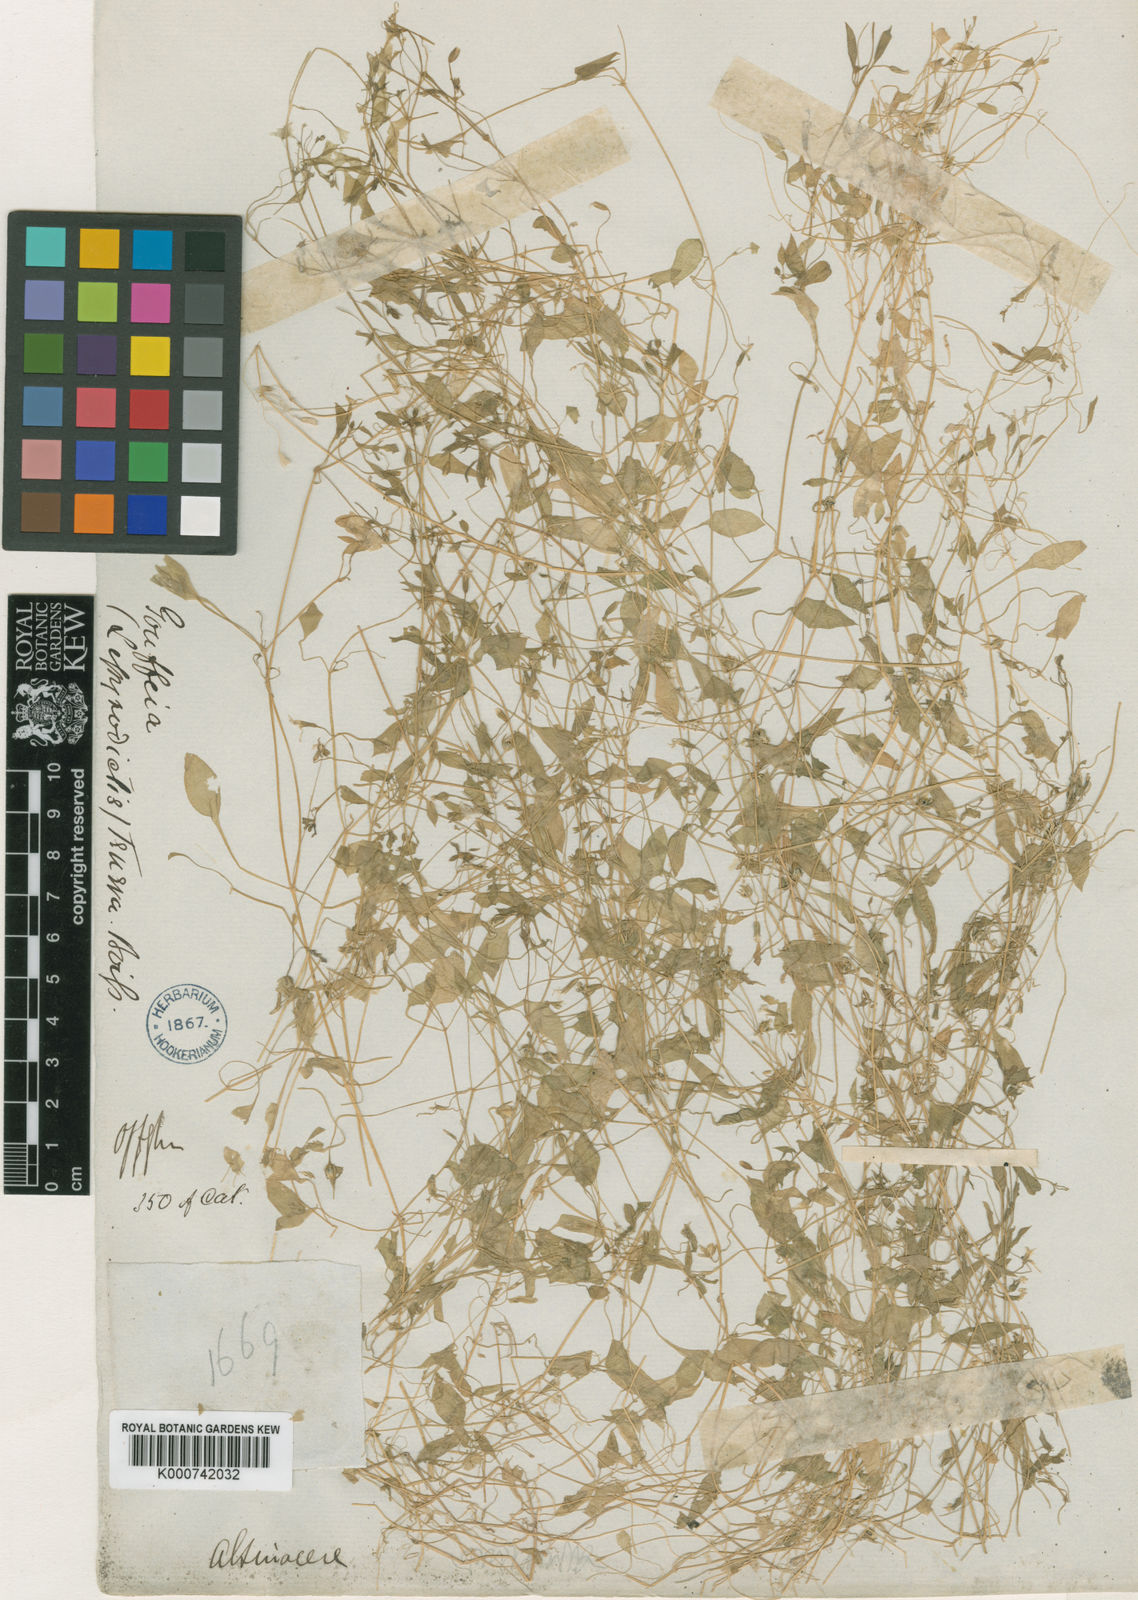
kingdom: Plantae
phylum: Tracheophyta
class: Magnoliopsida
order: Caryophyllales
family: Caryophyllaceae
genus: Lepyrodiclis
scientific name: Lepyrodiclis tenera
